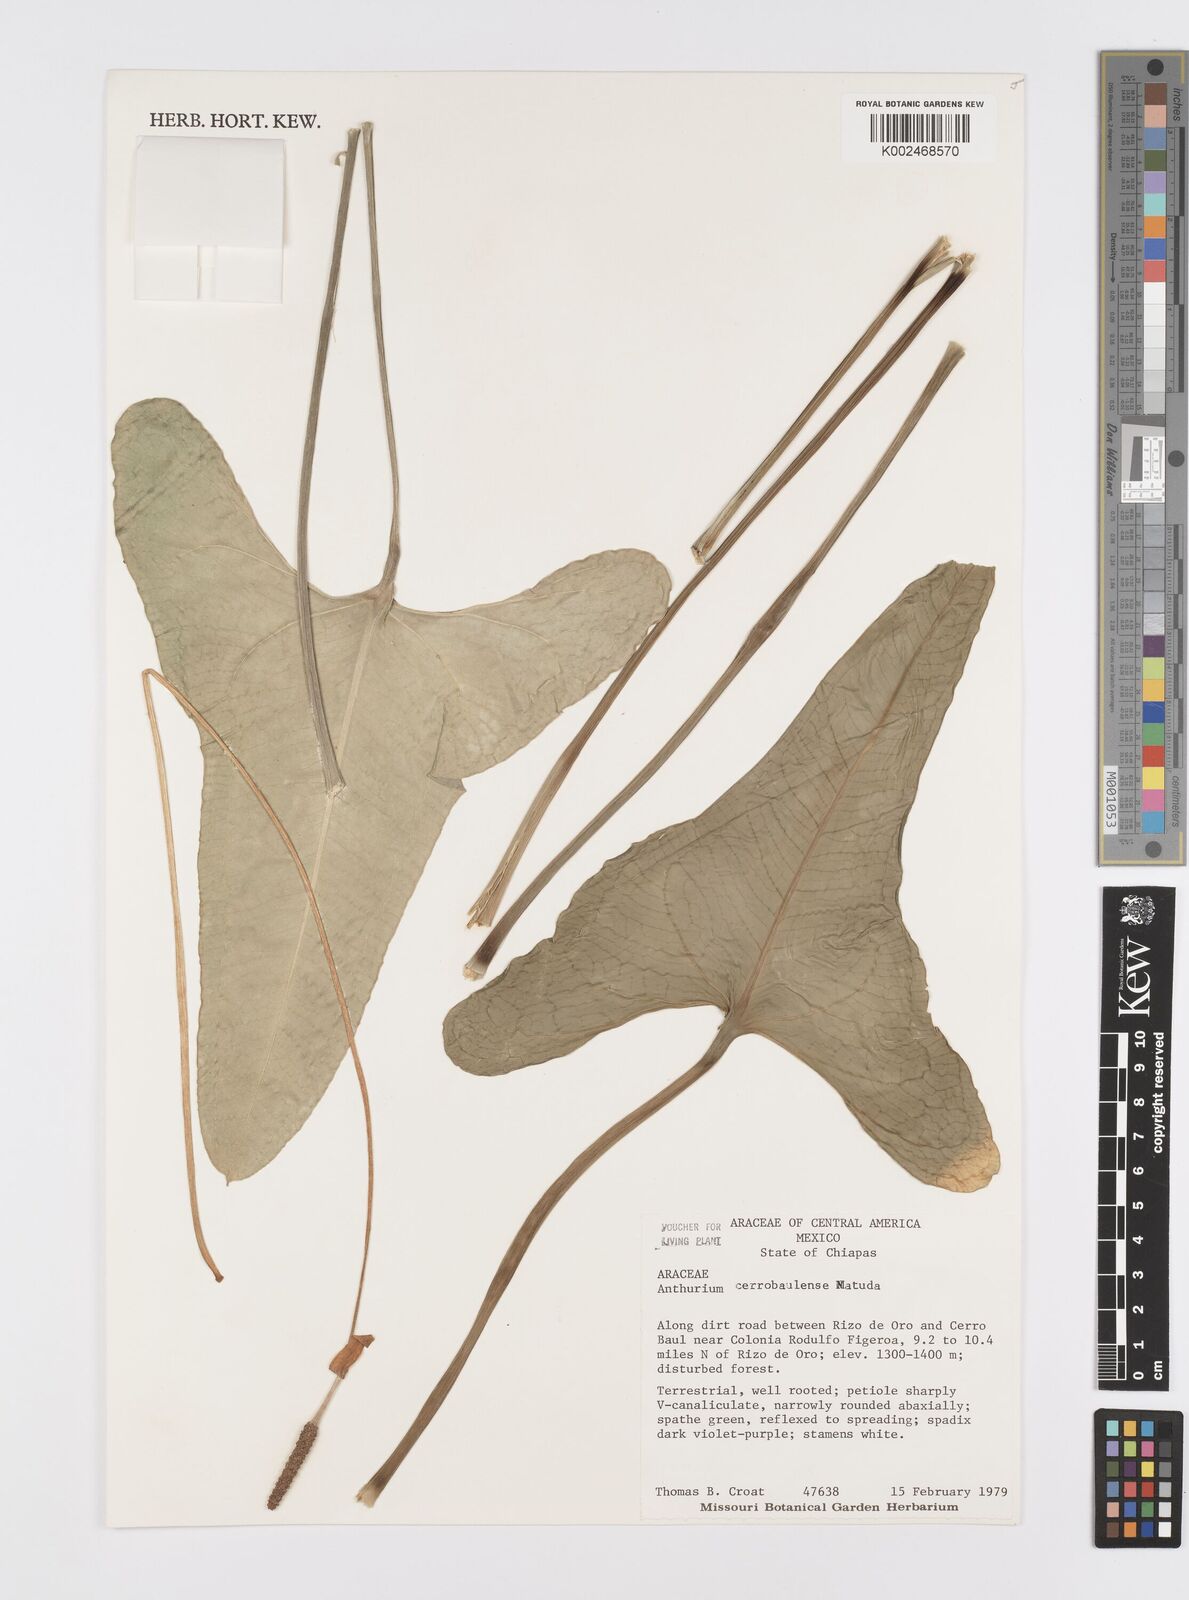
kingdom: Plantae
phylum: Tracheophyta
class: Liliopsida
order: Alismatales
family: Araceae
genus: Anthurium
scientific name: Anthurium cerrobaulense
